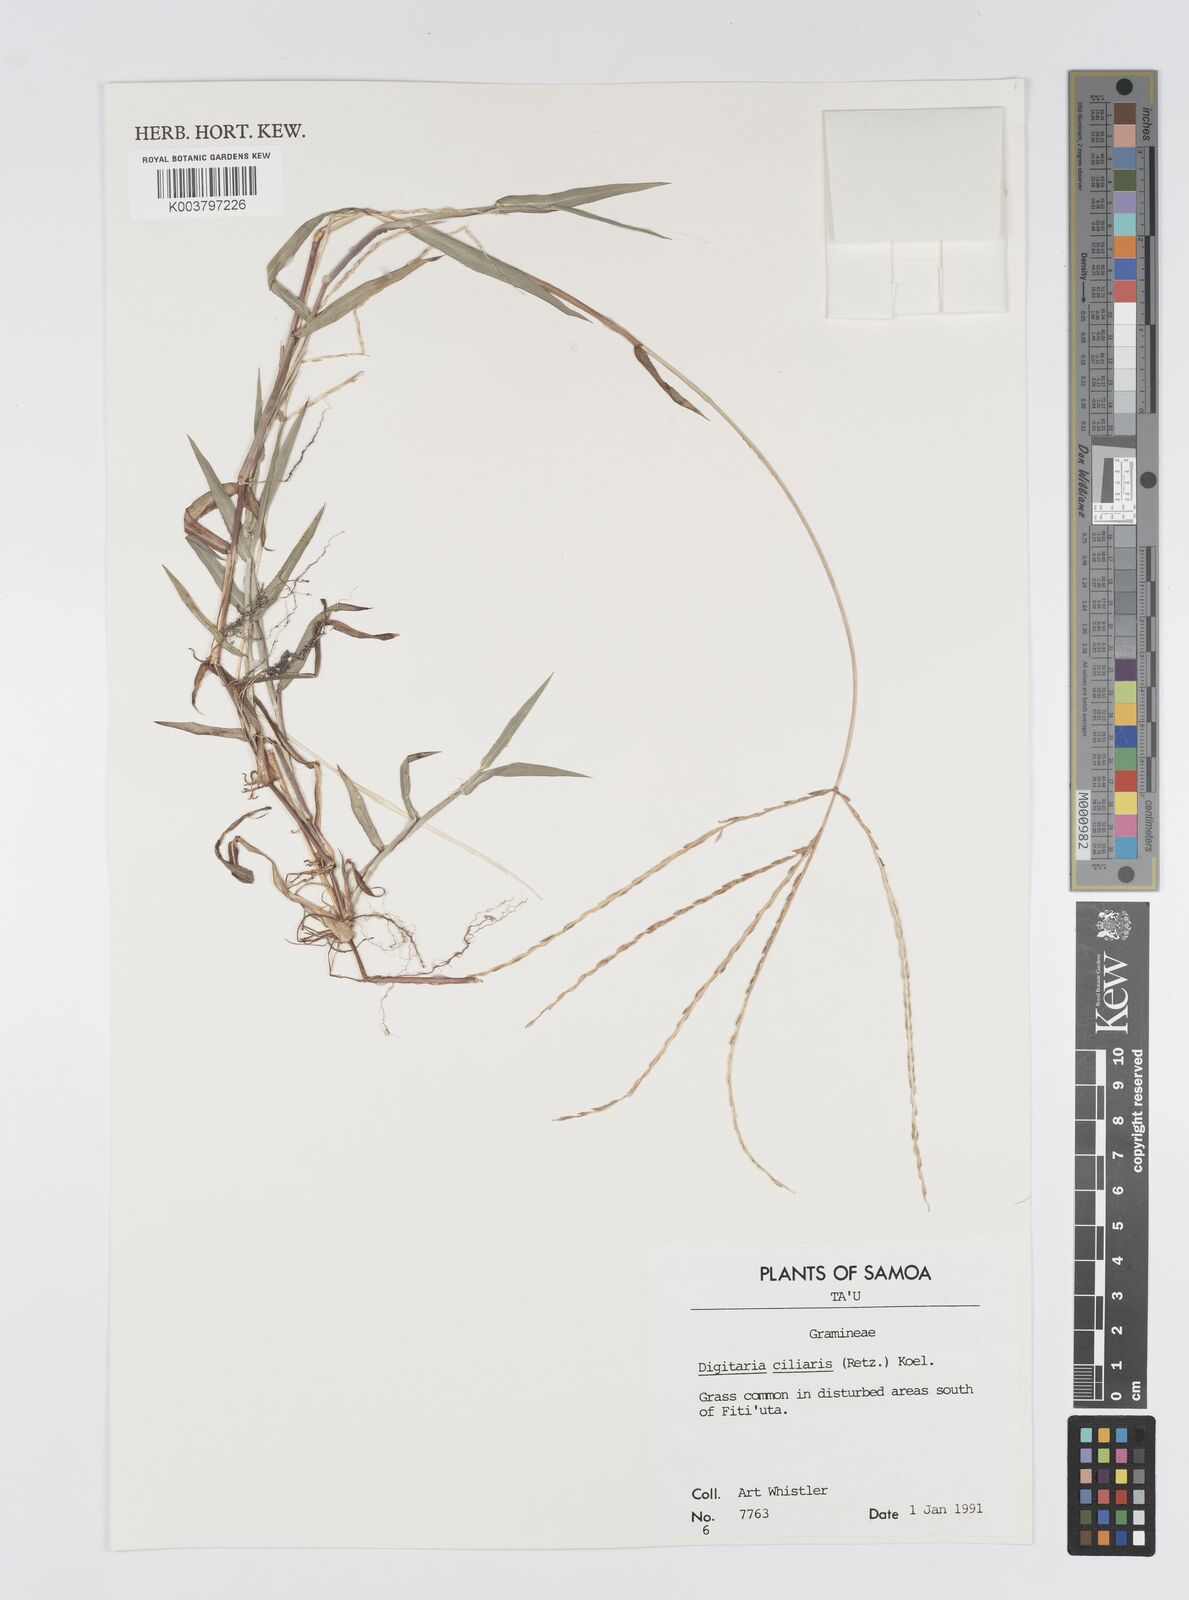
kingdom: Plantae
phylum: Tracheophyta
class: Liliopsida
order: Poales
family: Poaceae
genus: Digitaria
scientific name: Digitaria ciliaris
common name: Tropical finger-grass
